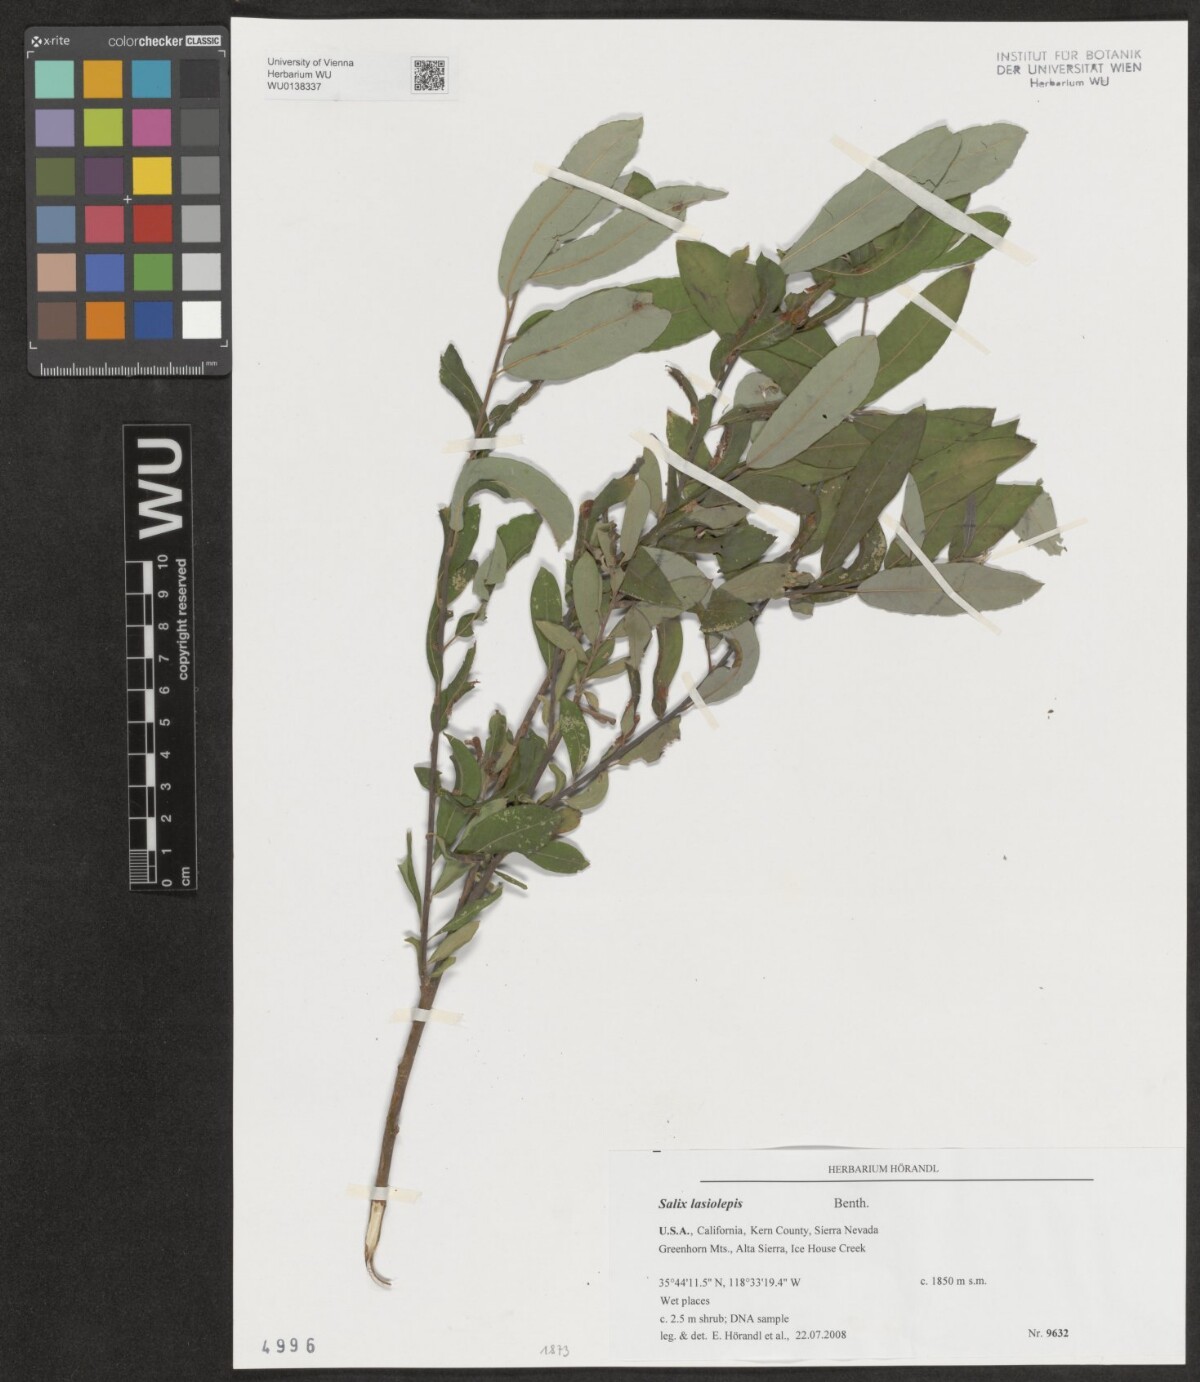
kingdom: Plantae
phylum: Tracheophyta
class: Magnoliopsida
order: Malpighiales
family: Salicaceae
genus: Salix
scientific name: Salix lasiolepis
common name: Arroyo willow
